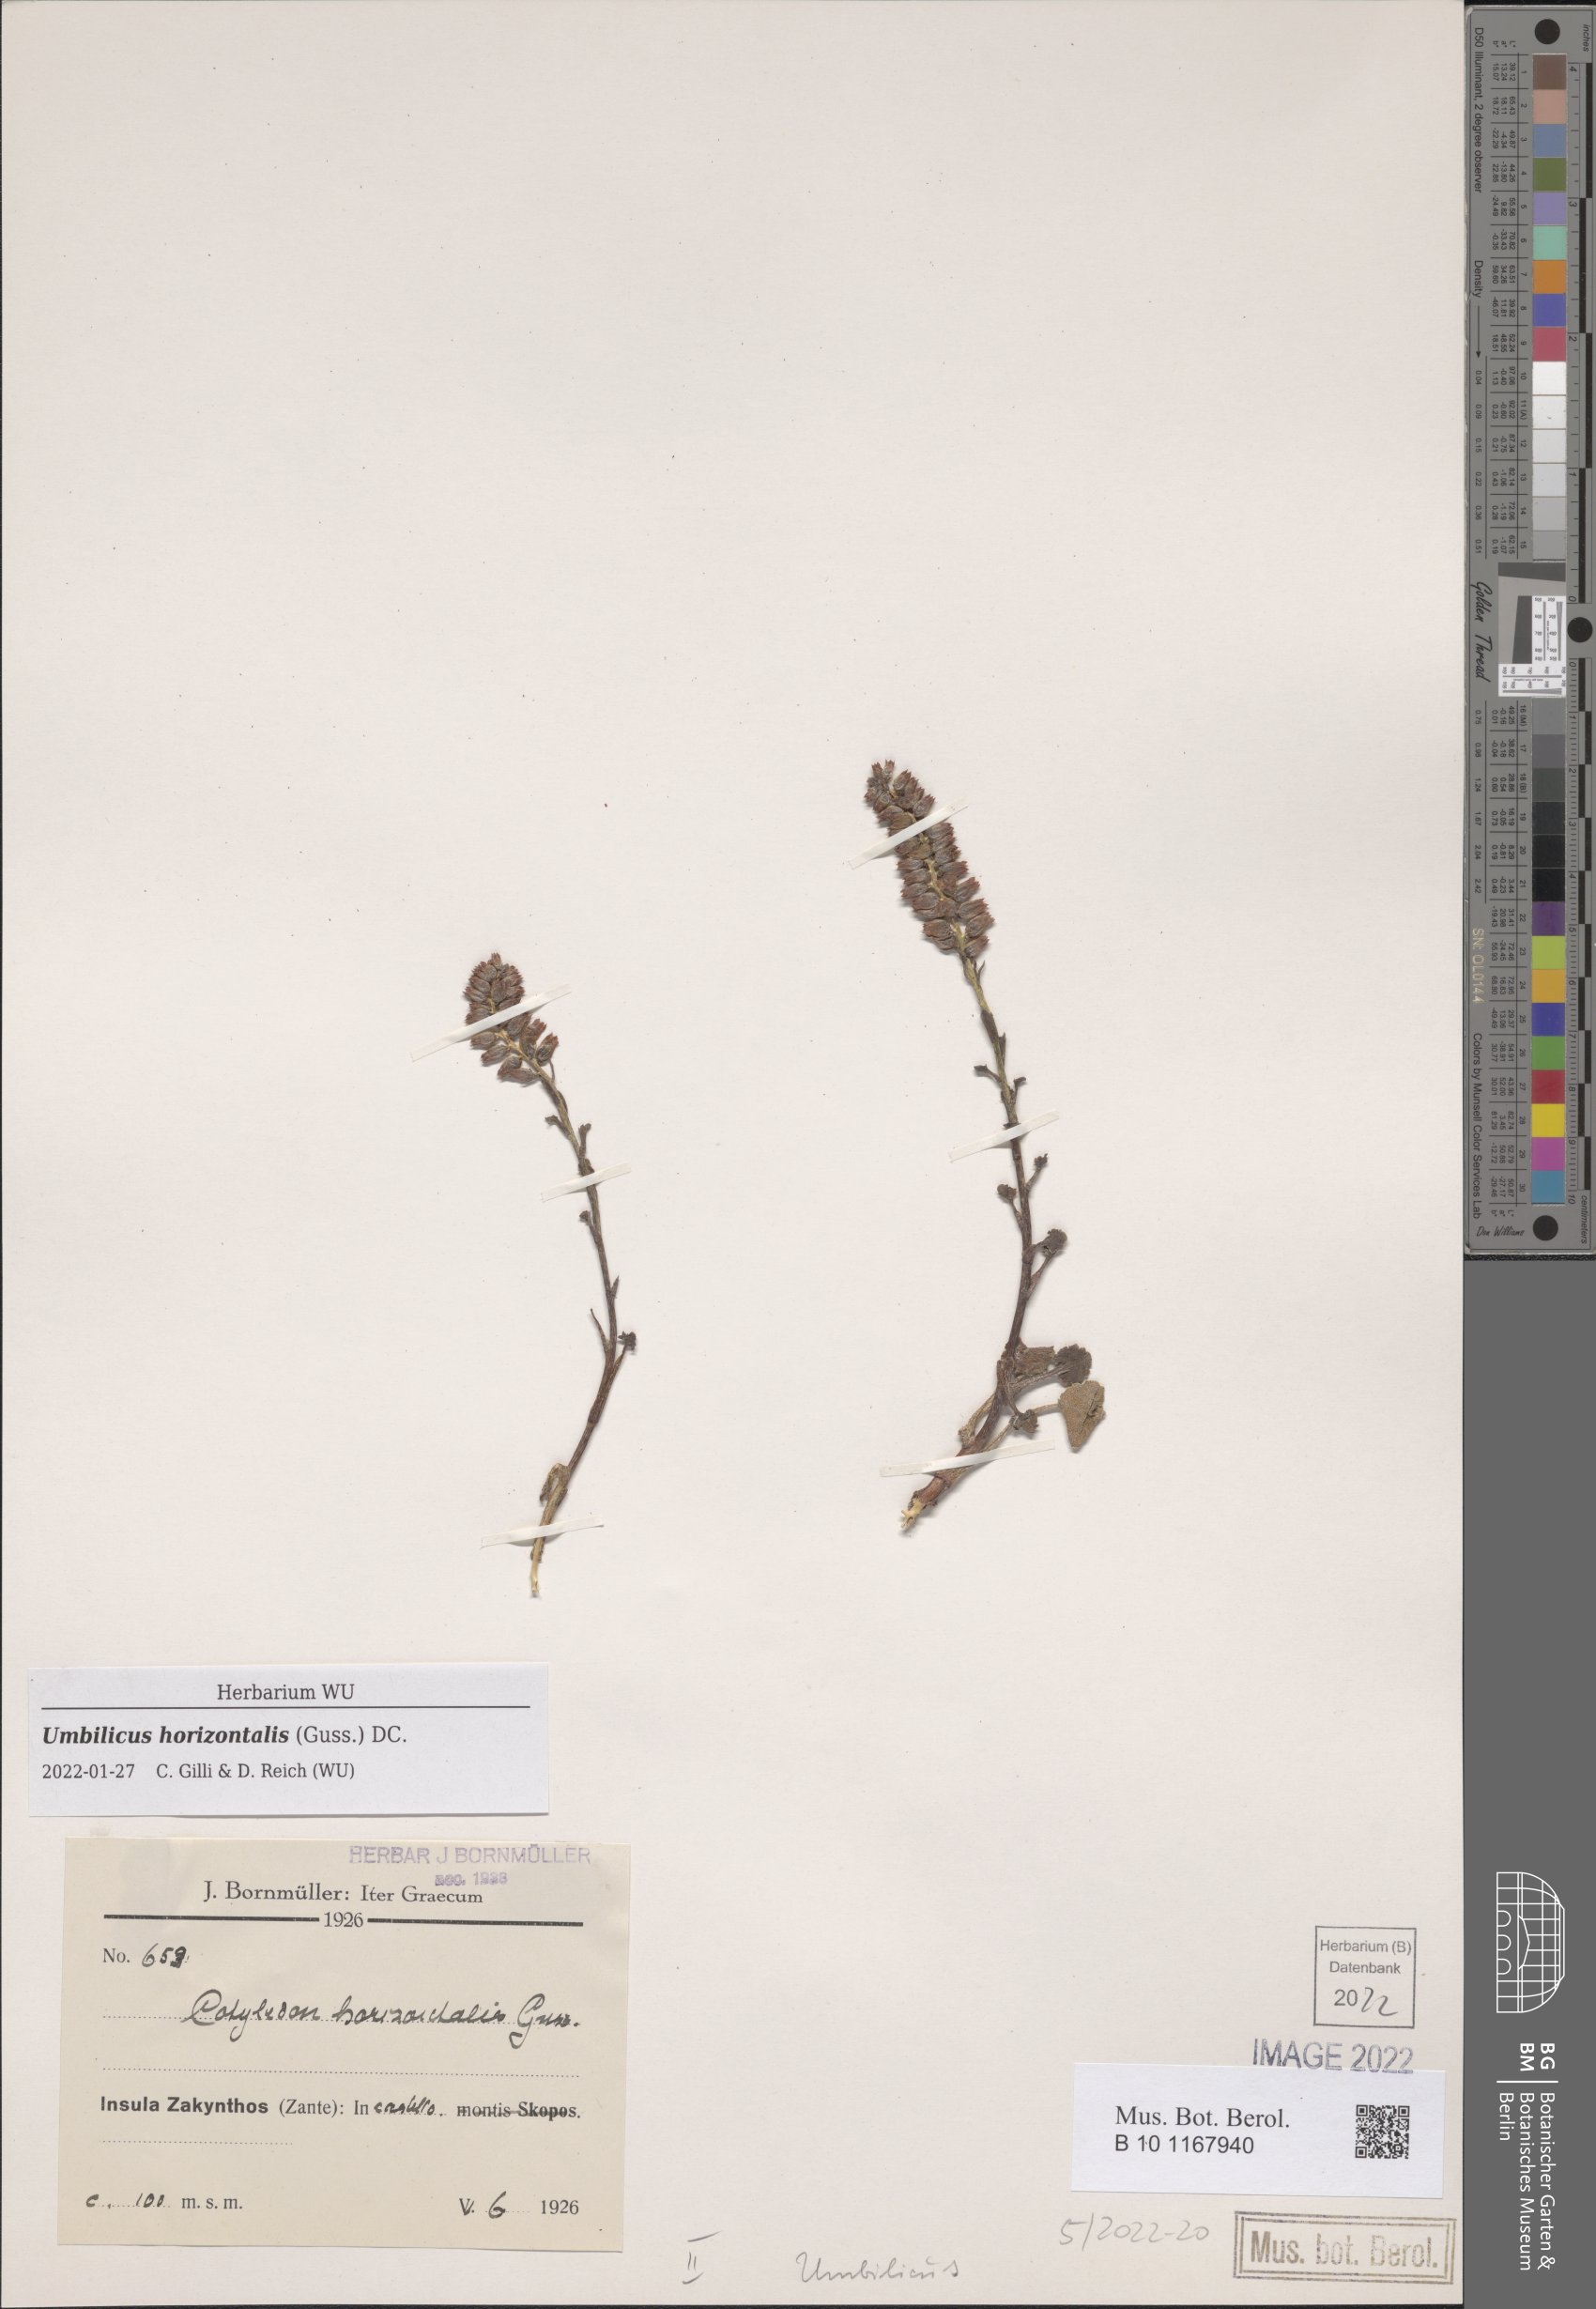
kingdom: Plantae
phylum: Tracheophyta
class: Magnoliopsida
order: Saxifragales
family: Crassulaceae
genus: Umbilicus
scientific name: Umbilicus horizontalis
